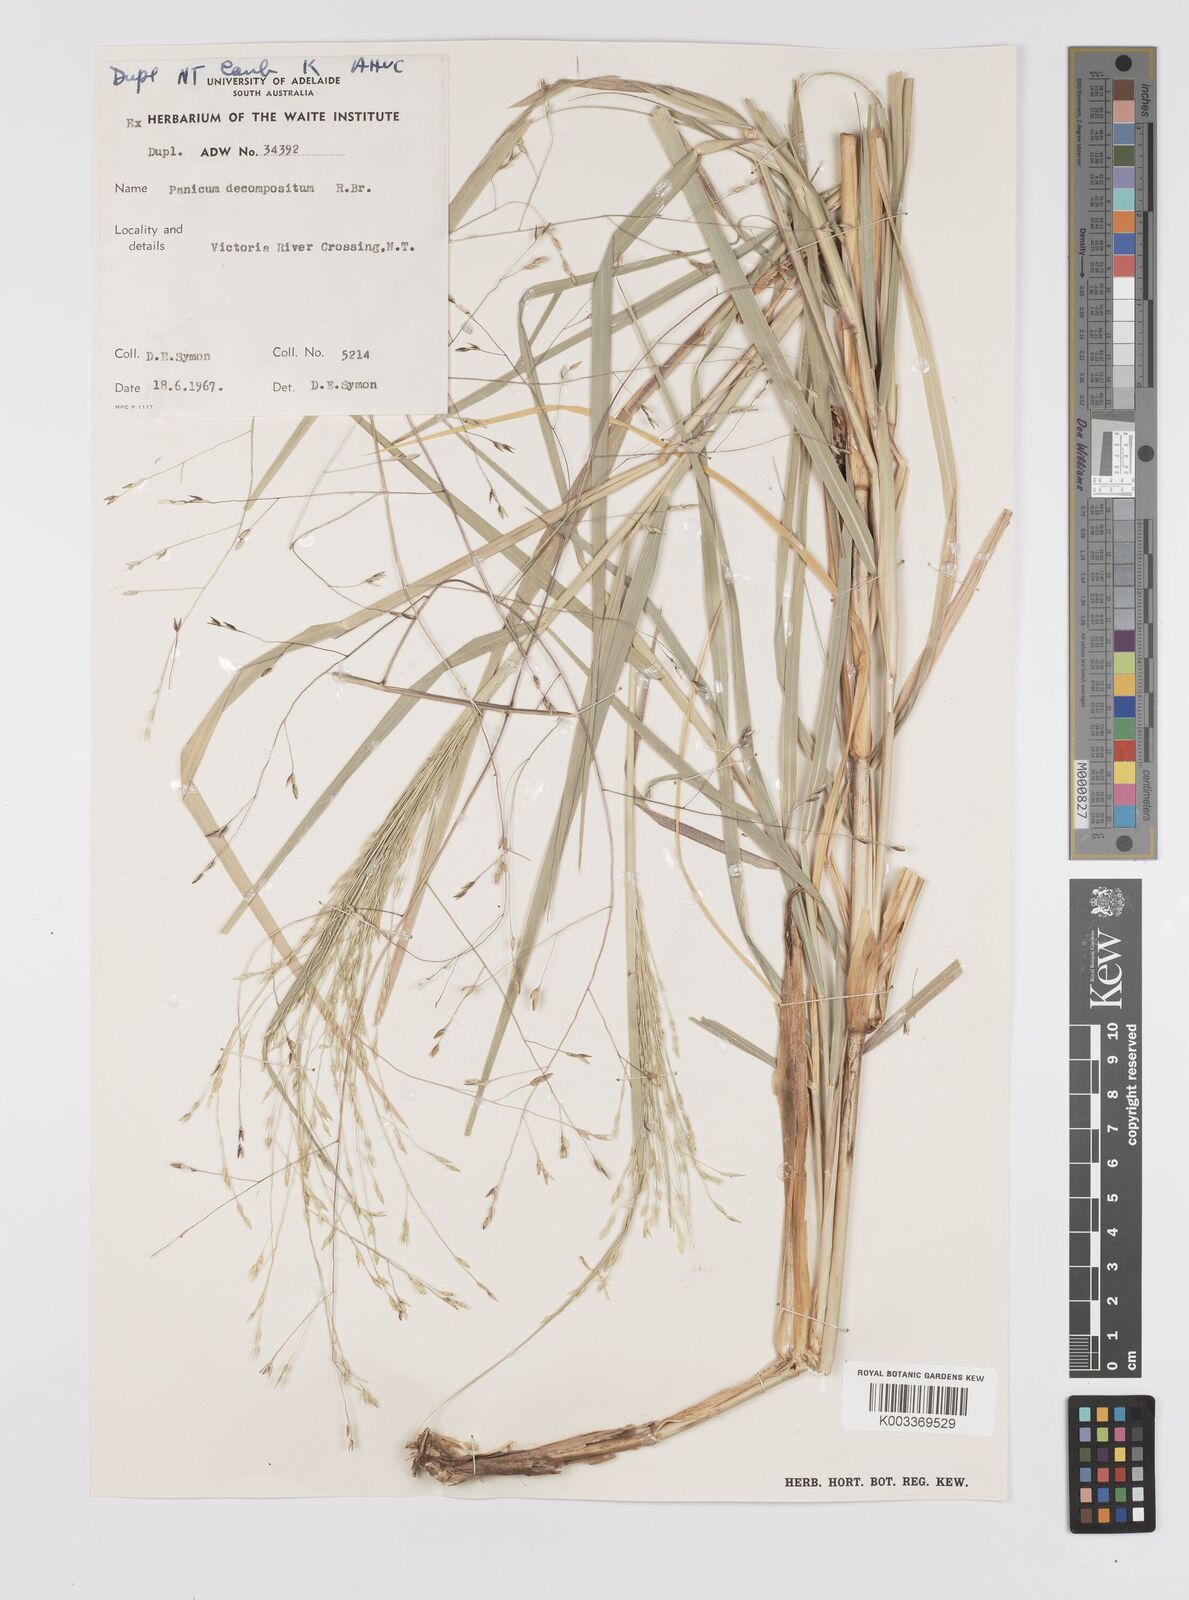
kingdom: Plantae
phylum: Tracheophyta
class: Liliopsida
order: Poales
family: Poaceae
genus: Panicum
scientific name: Panicum decompositum
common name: Australian millet
